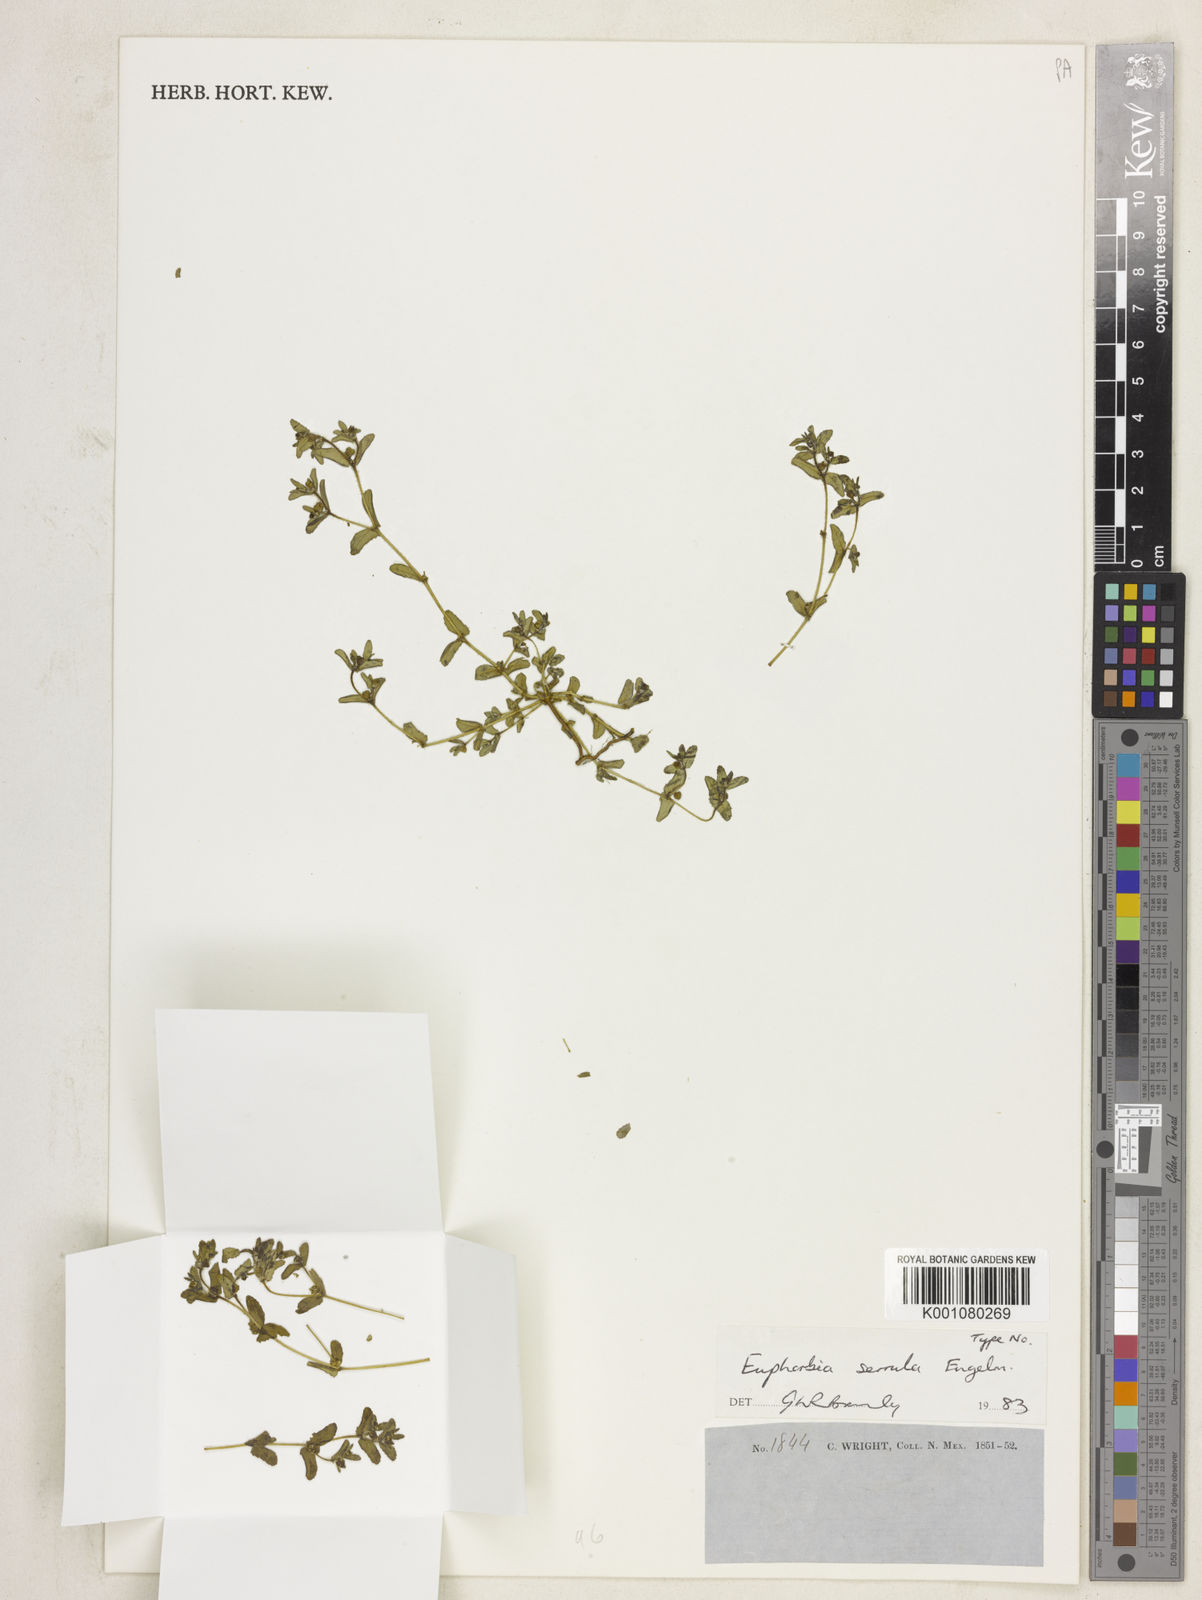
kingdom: Plantae
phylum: Tracheophyta
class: Magnoliopsida
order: Malpighiales
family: Euphorbiaceae
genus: Euphorbia
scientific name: Euphorbia serrula
